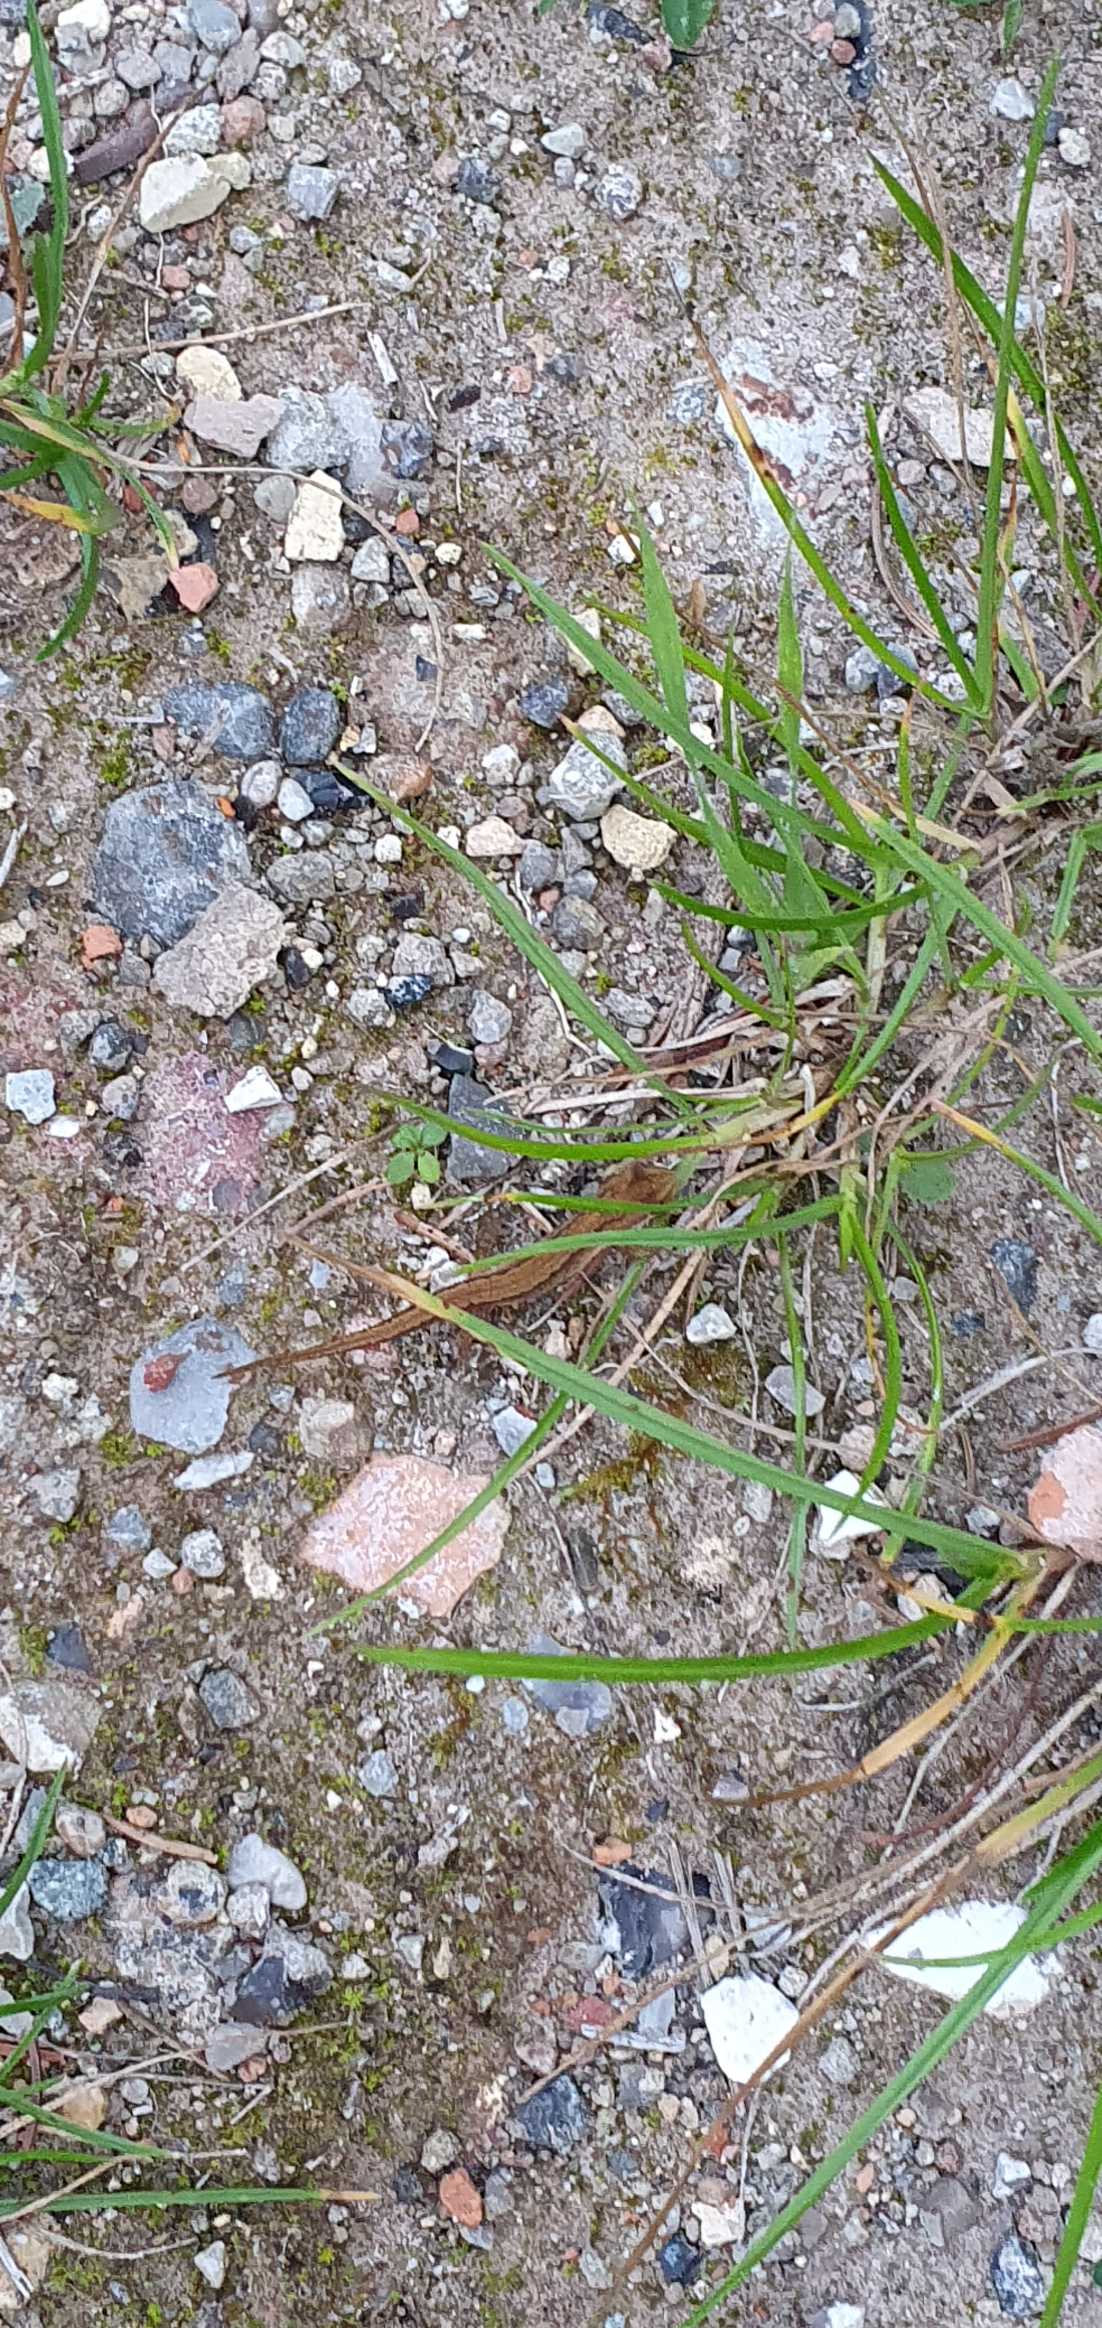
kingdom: Animalia
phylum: Chordata
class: Amphibia
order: Caudata
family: Salamandridae
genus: Lissotriton
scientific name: Lissotriton vulgaris
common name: Lille vandsalamander
